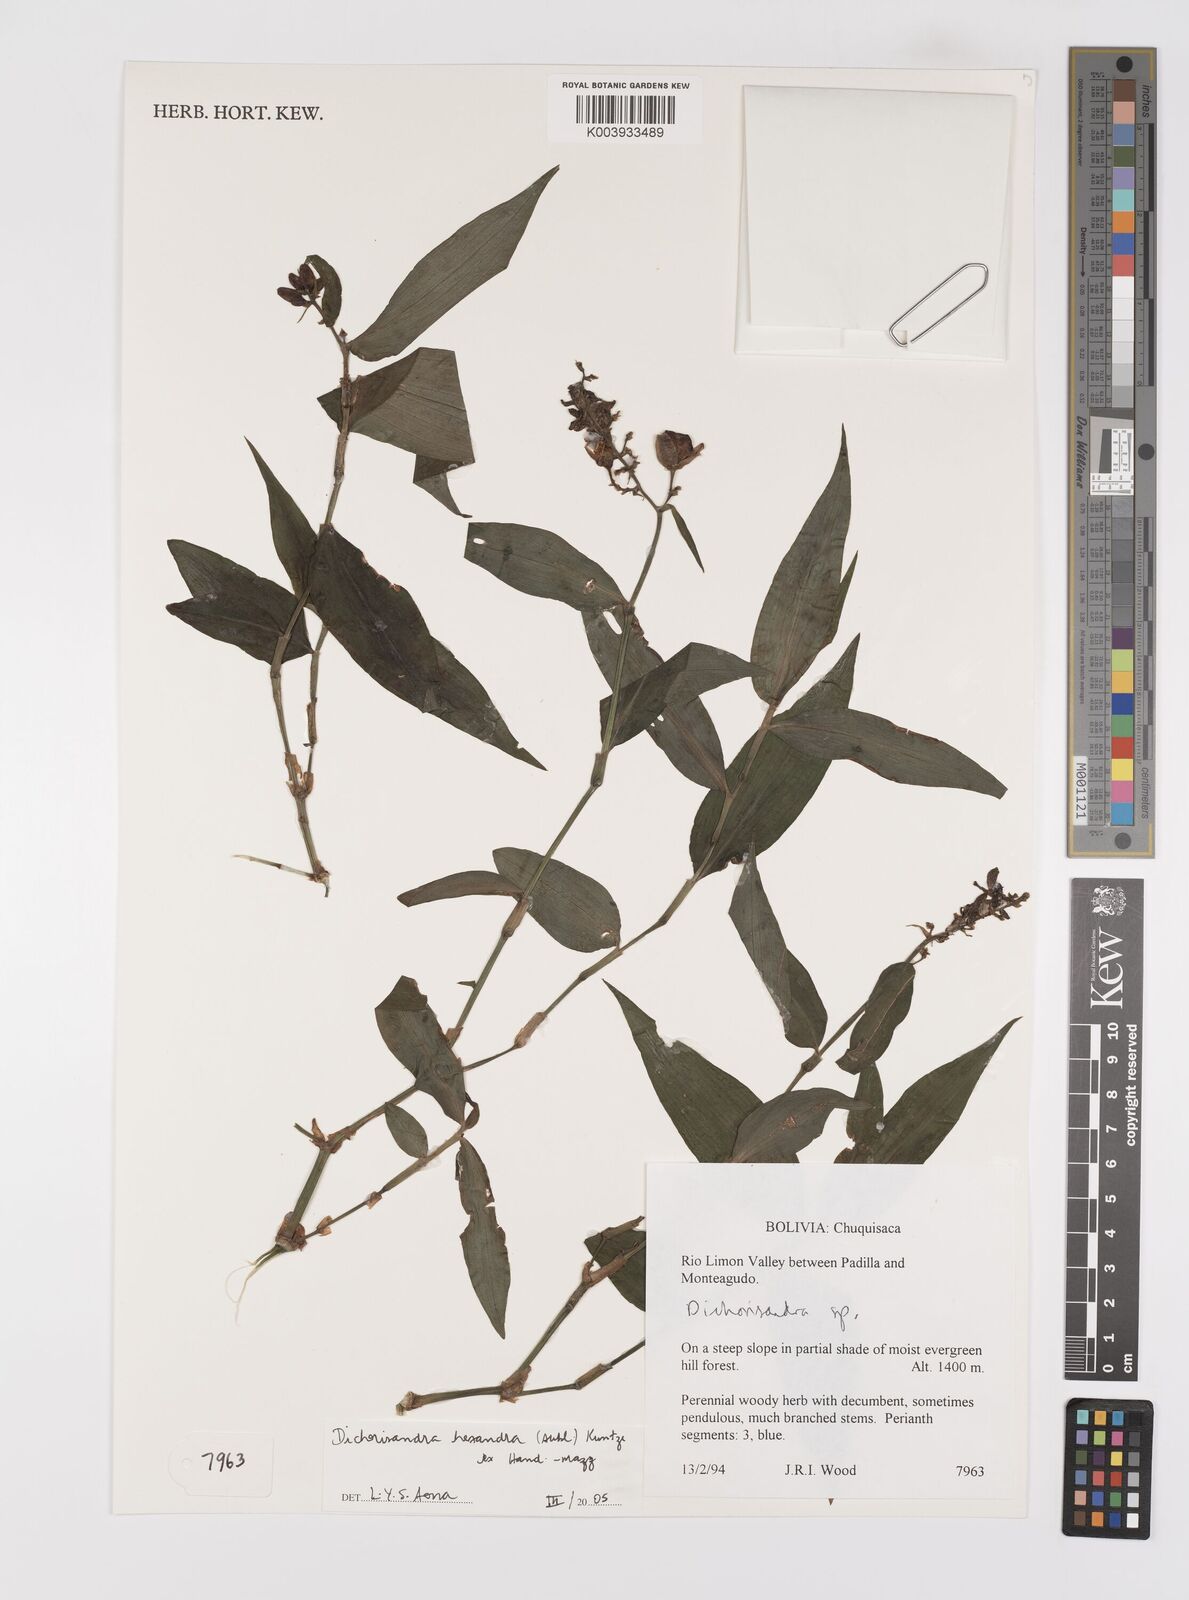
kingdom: Plantae
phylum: Tracheophyta
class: Liliopsida
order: Commelinales
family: Commelinaceae
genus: Dichorisandra
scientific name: Dichorisandra hexandra
